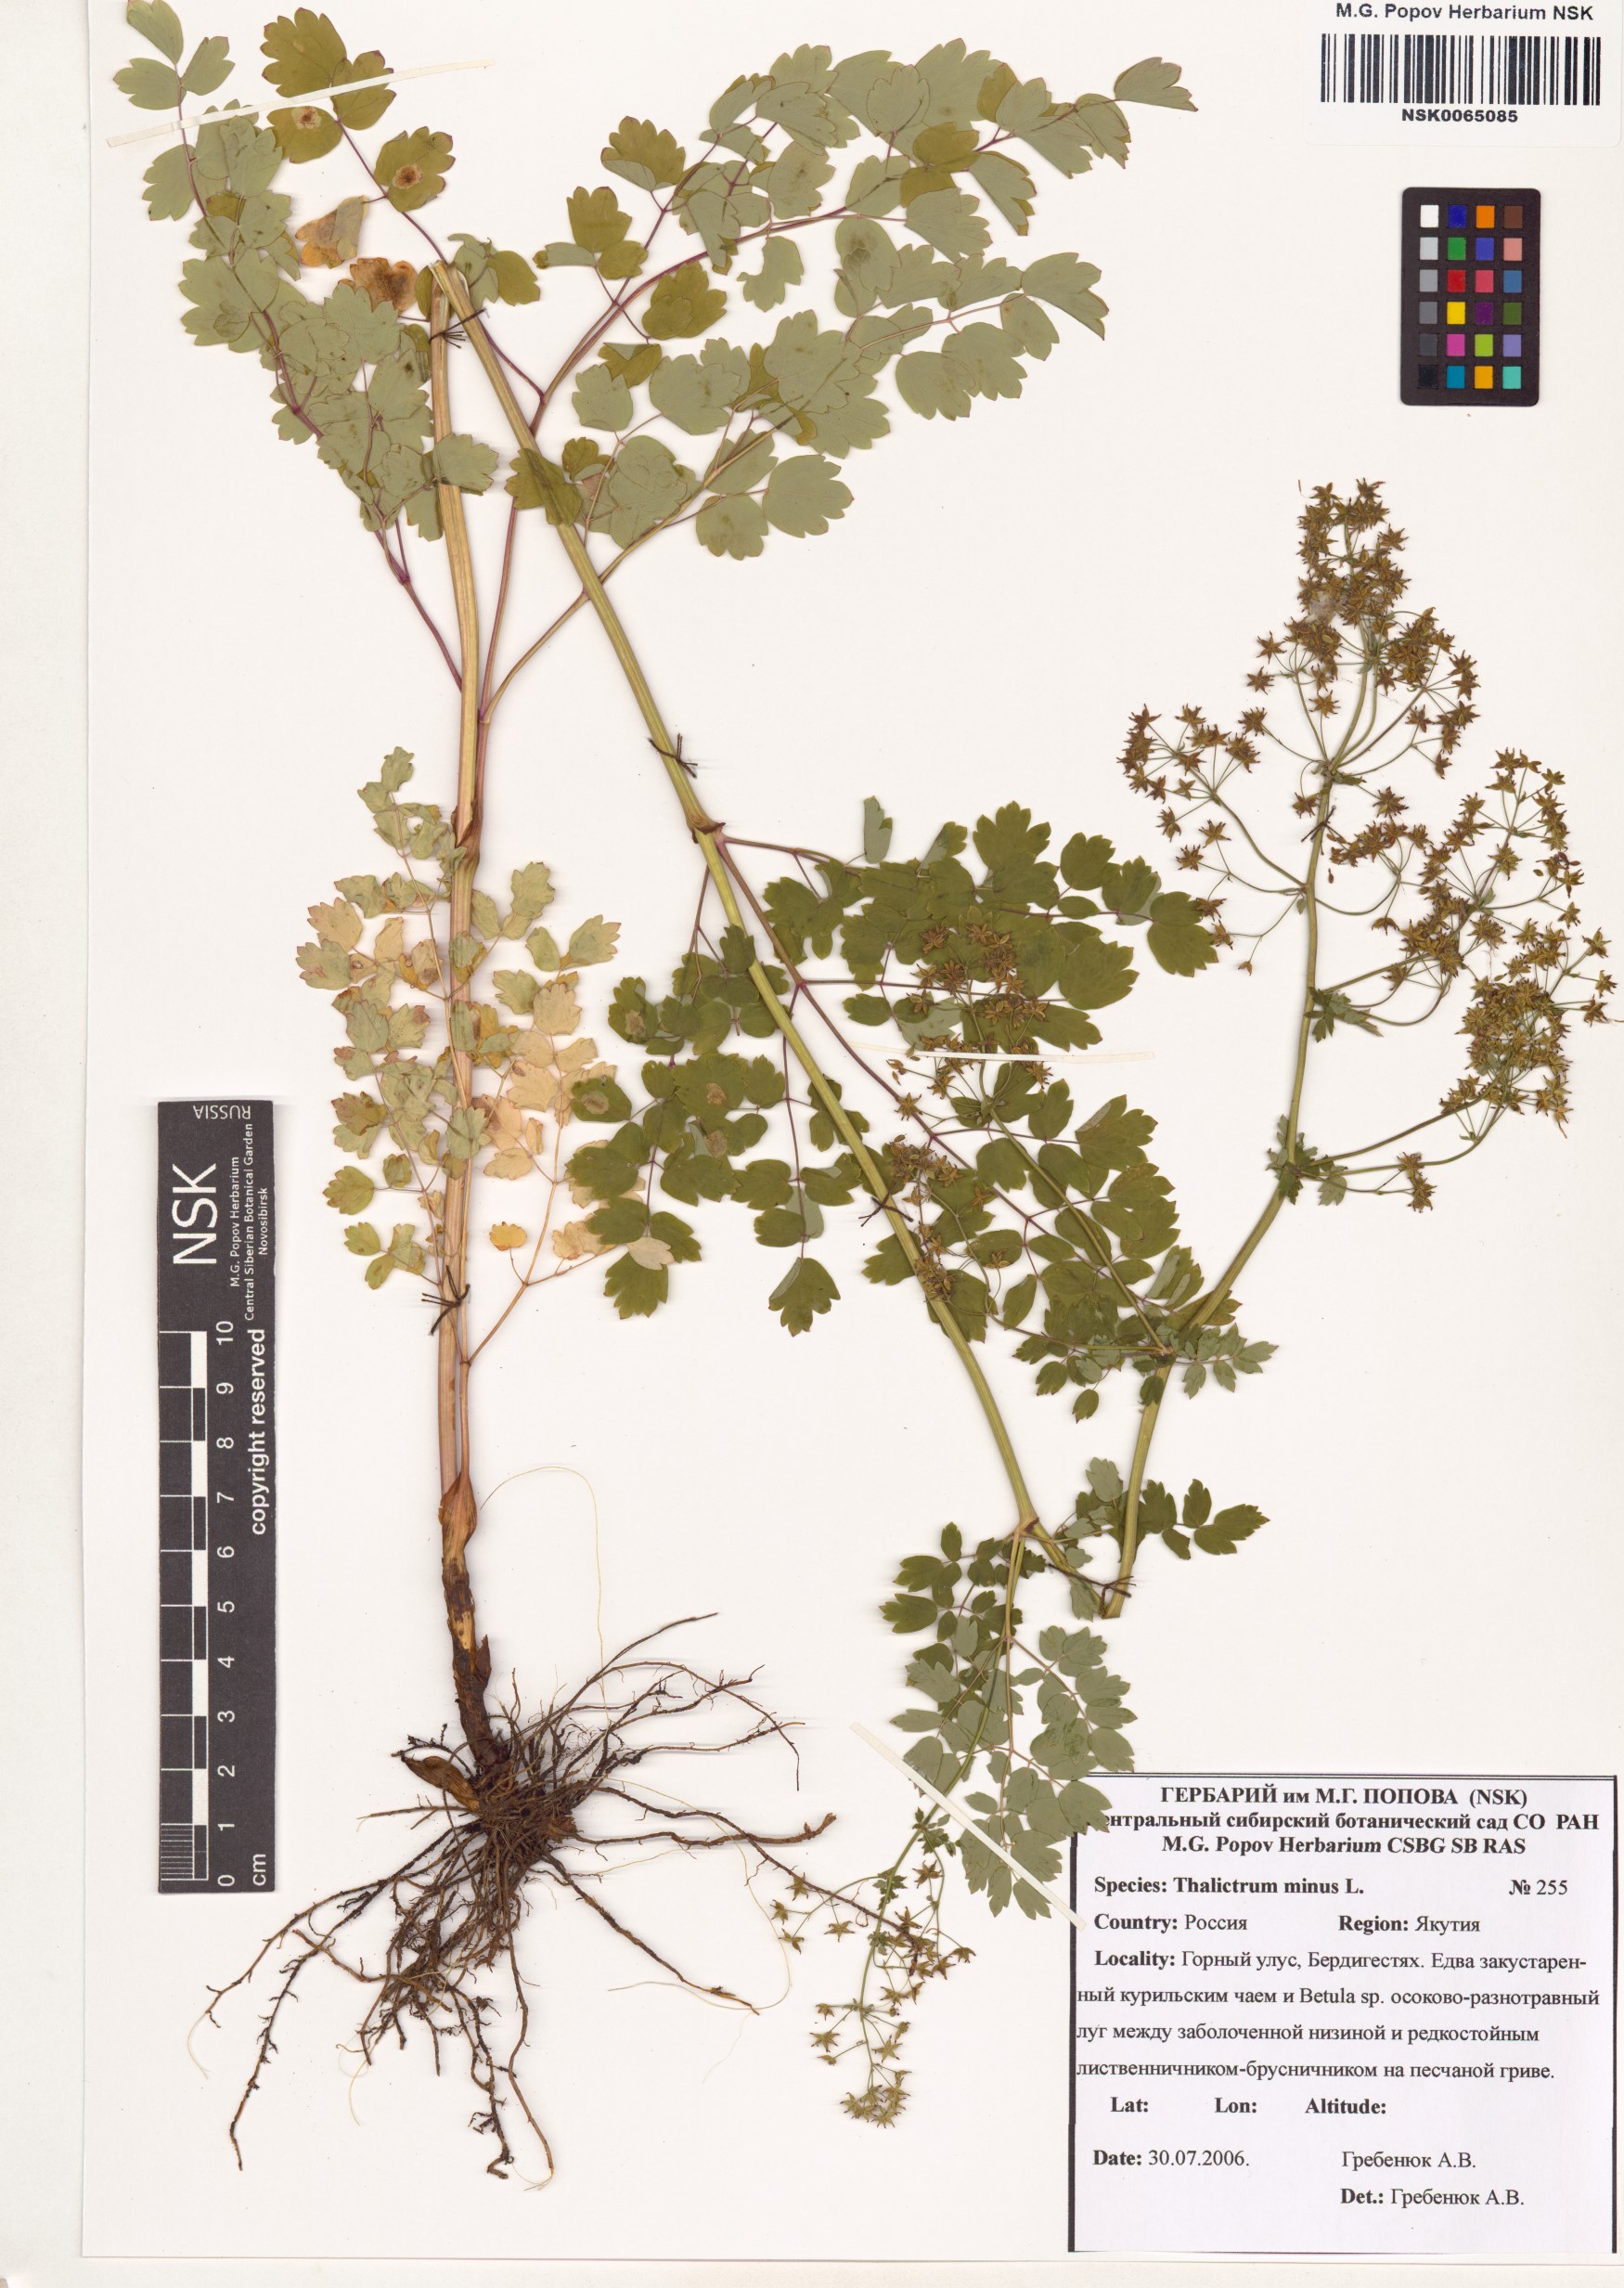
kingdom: Plantae
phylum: Tracheophyta
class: Magnoliopsida
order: Ranunculales
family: Ranunculaceae
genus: Thalictrum
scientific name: Thalictrum minus
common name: Lesser meadow-rue
